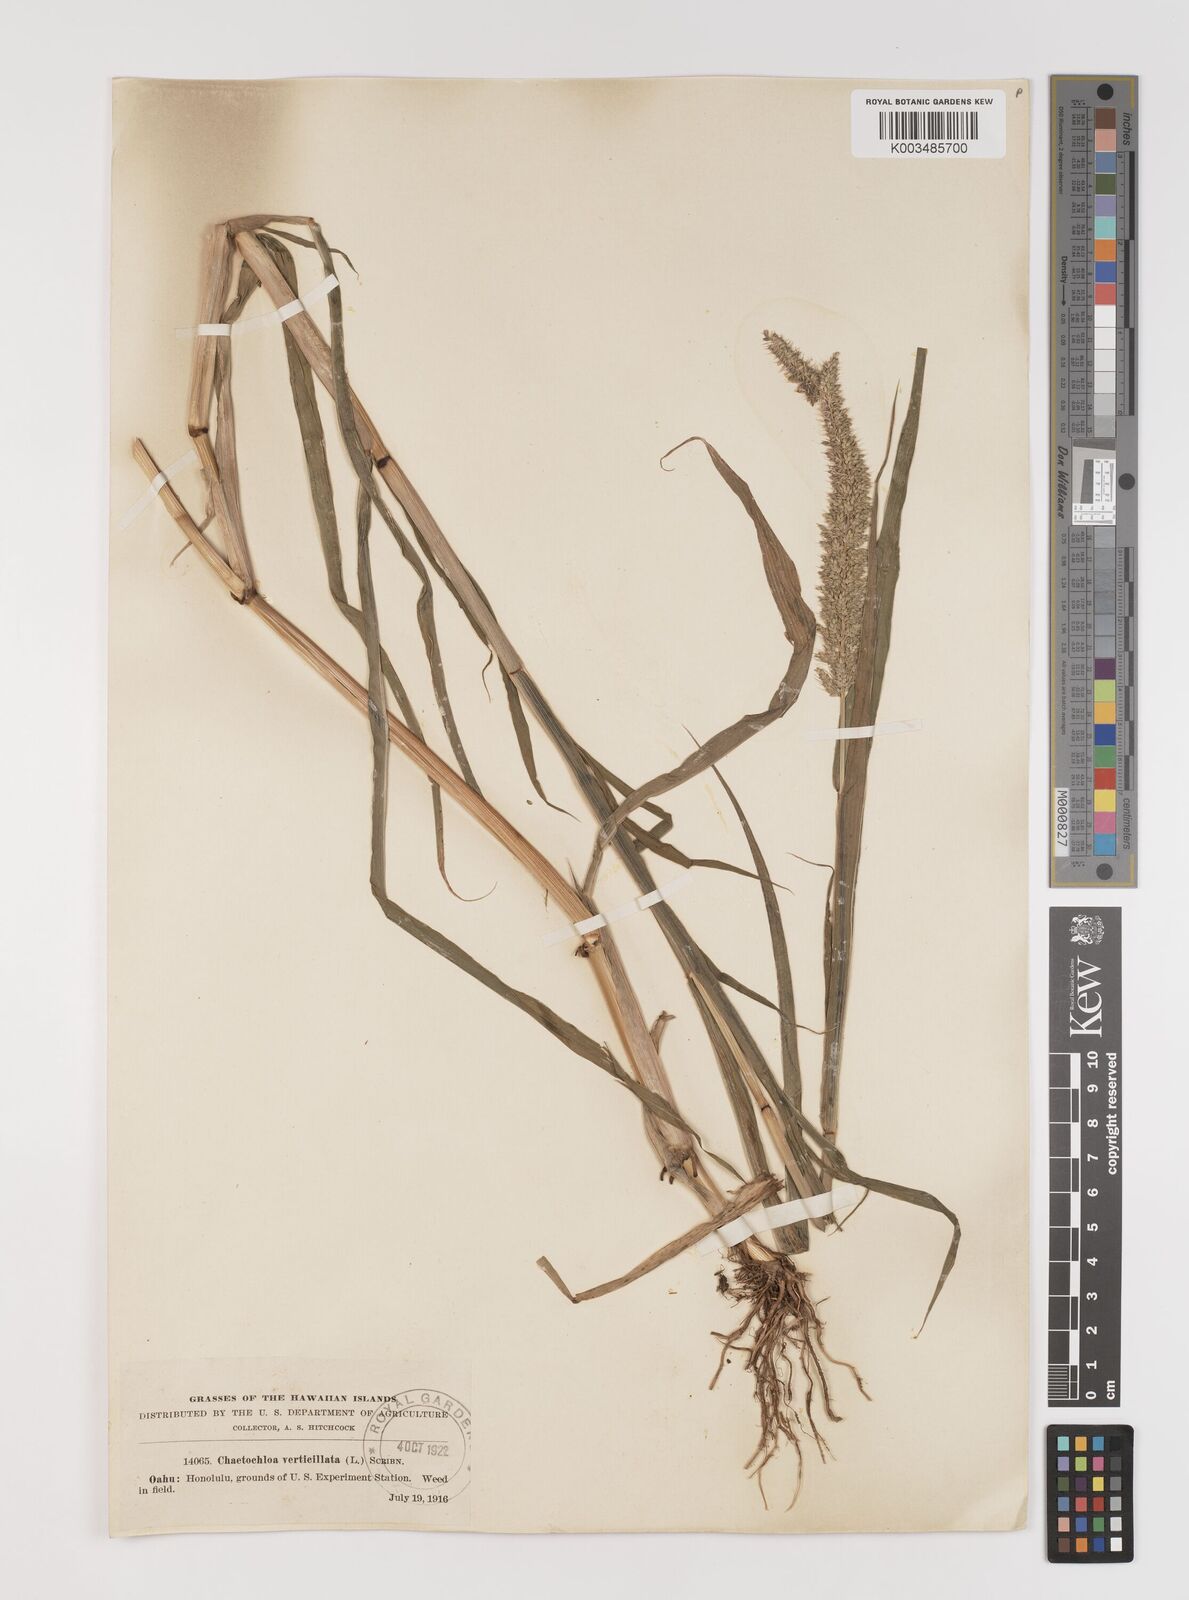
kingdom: Plantae
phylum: Tracheophyta
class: Liliopsida
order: Poales
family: Poaceae
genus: Setaria
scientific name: Setaria verticillata
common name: Hooked bristlegrass
